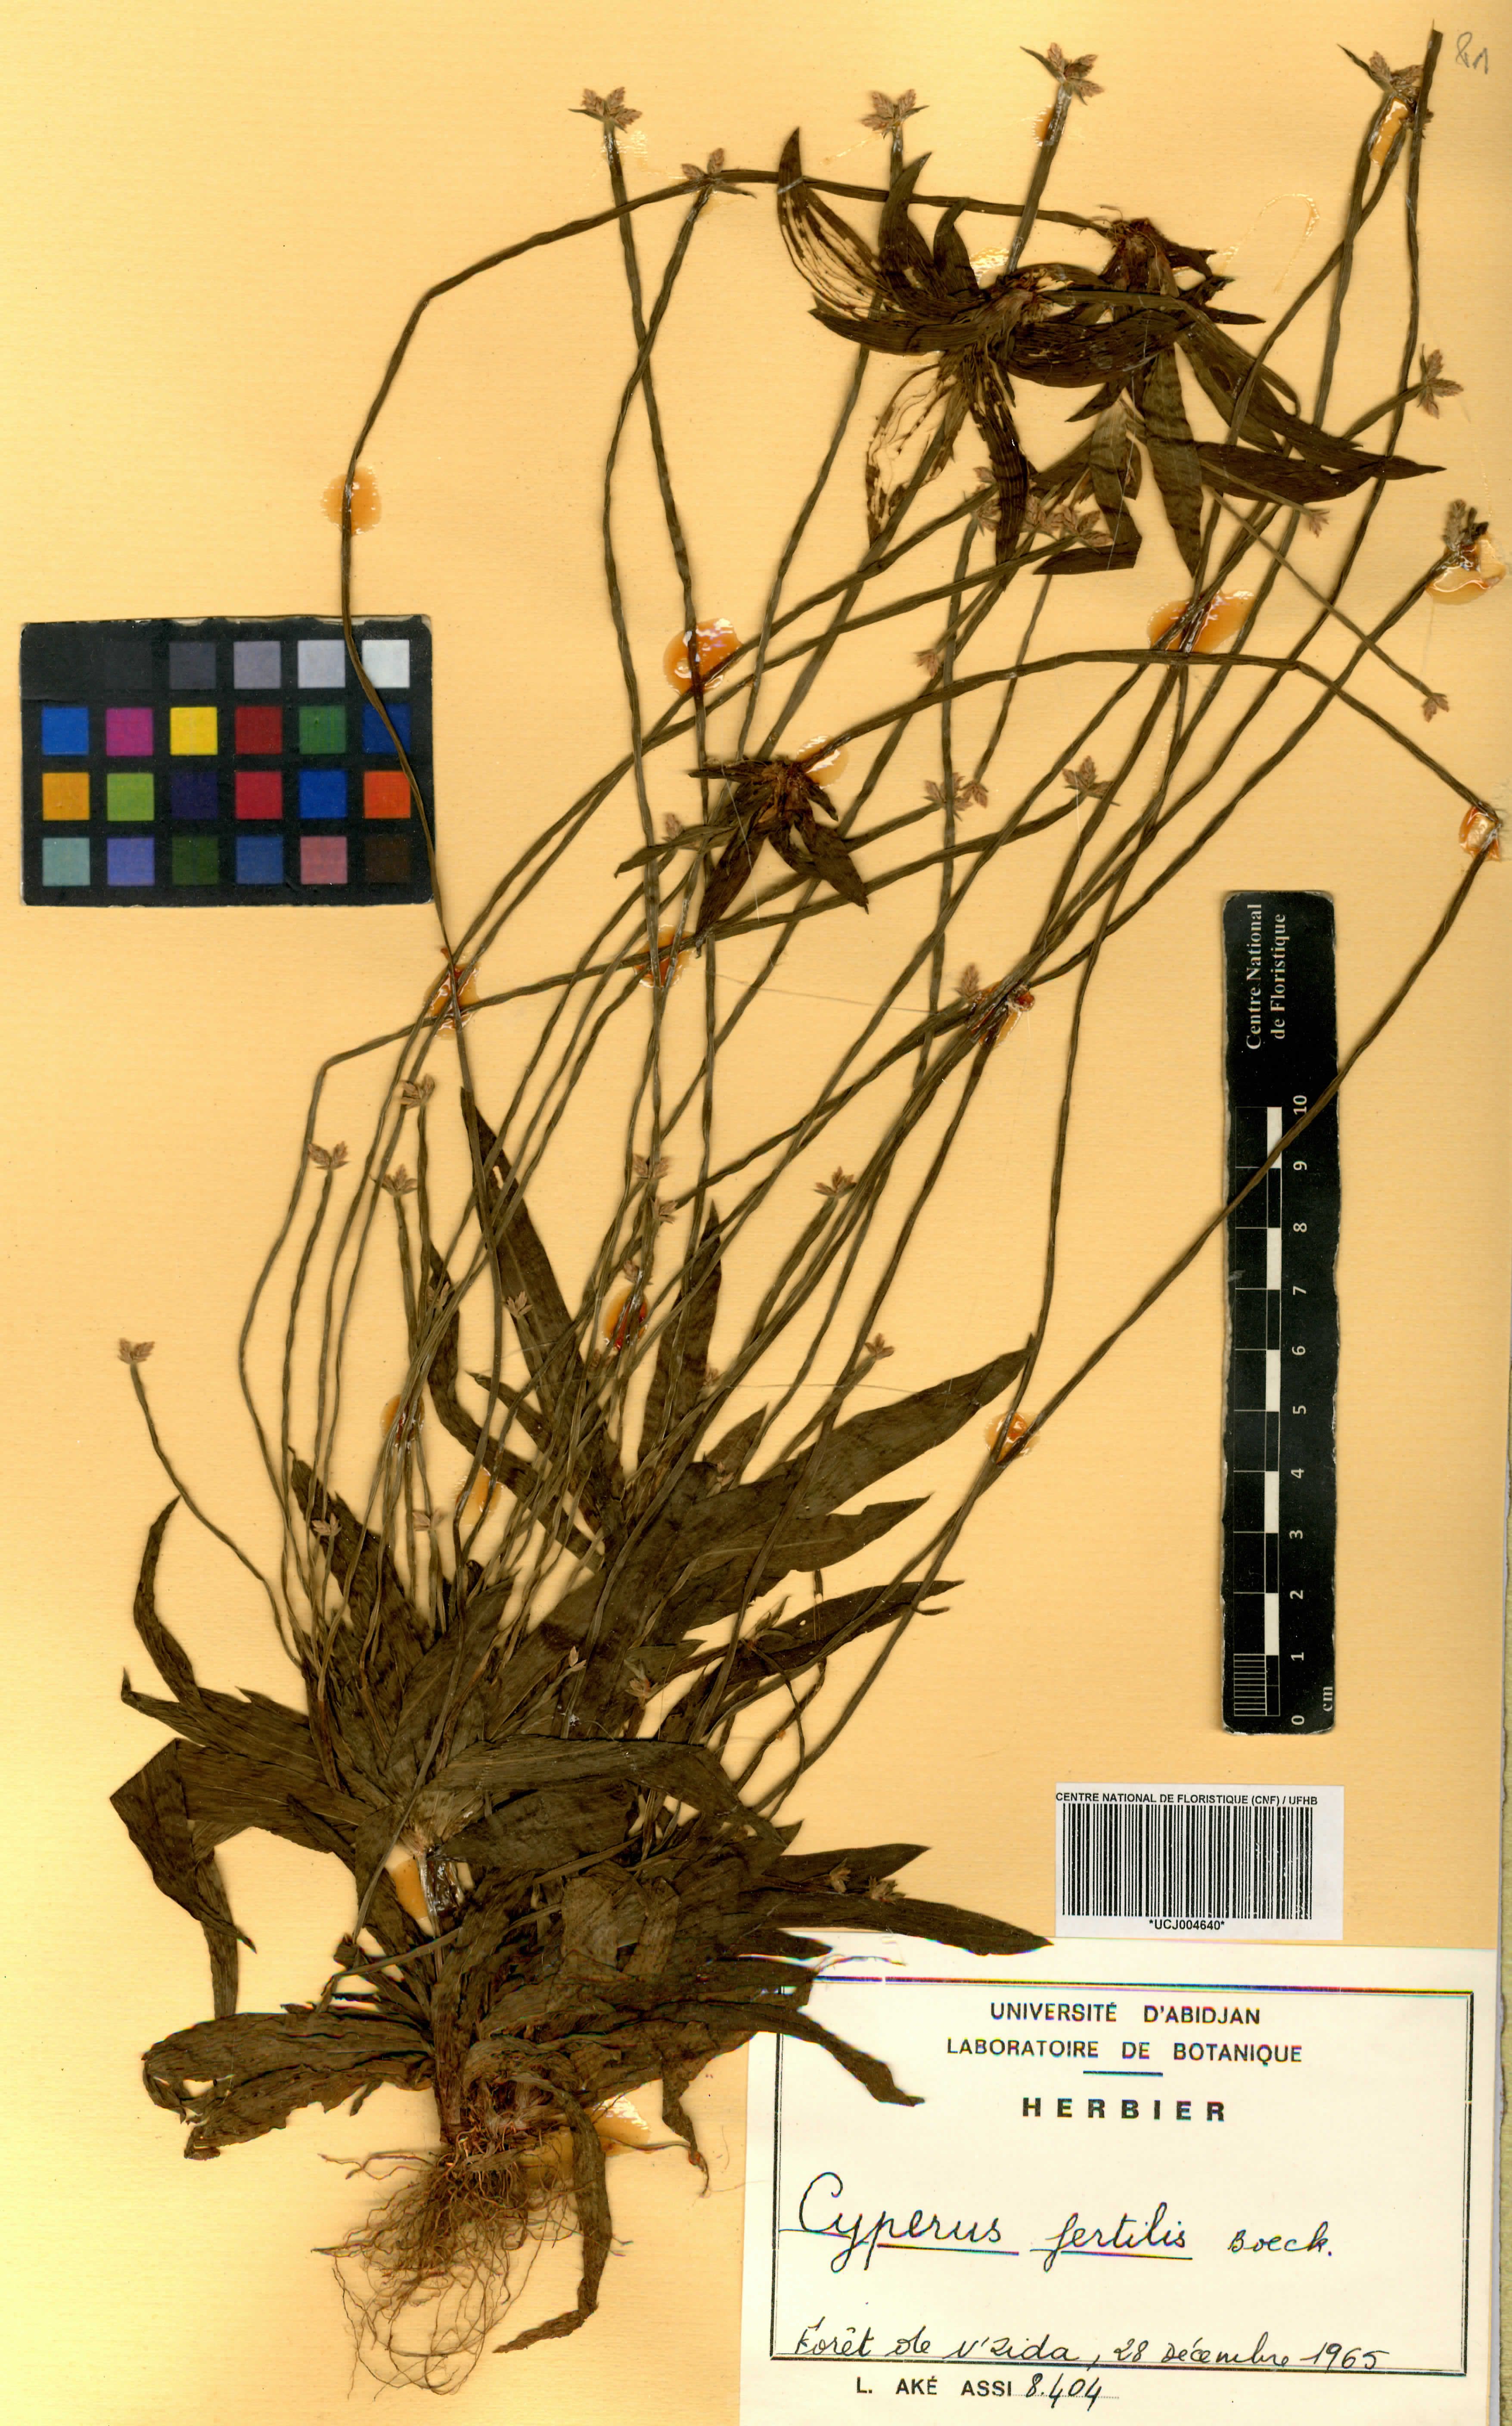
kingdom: Plantae
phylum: Tracheophyta
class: Liliopsida
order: Poales
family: Cyperaceae
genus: Cyperus
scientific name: Cyperus fertilis
